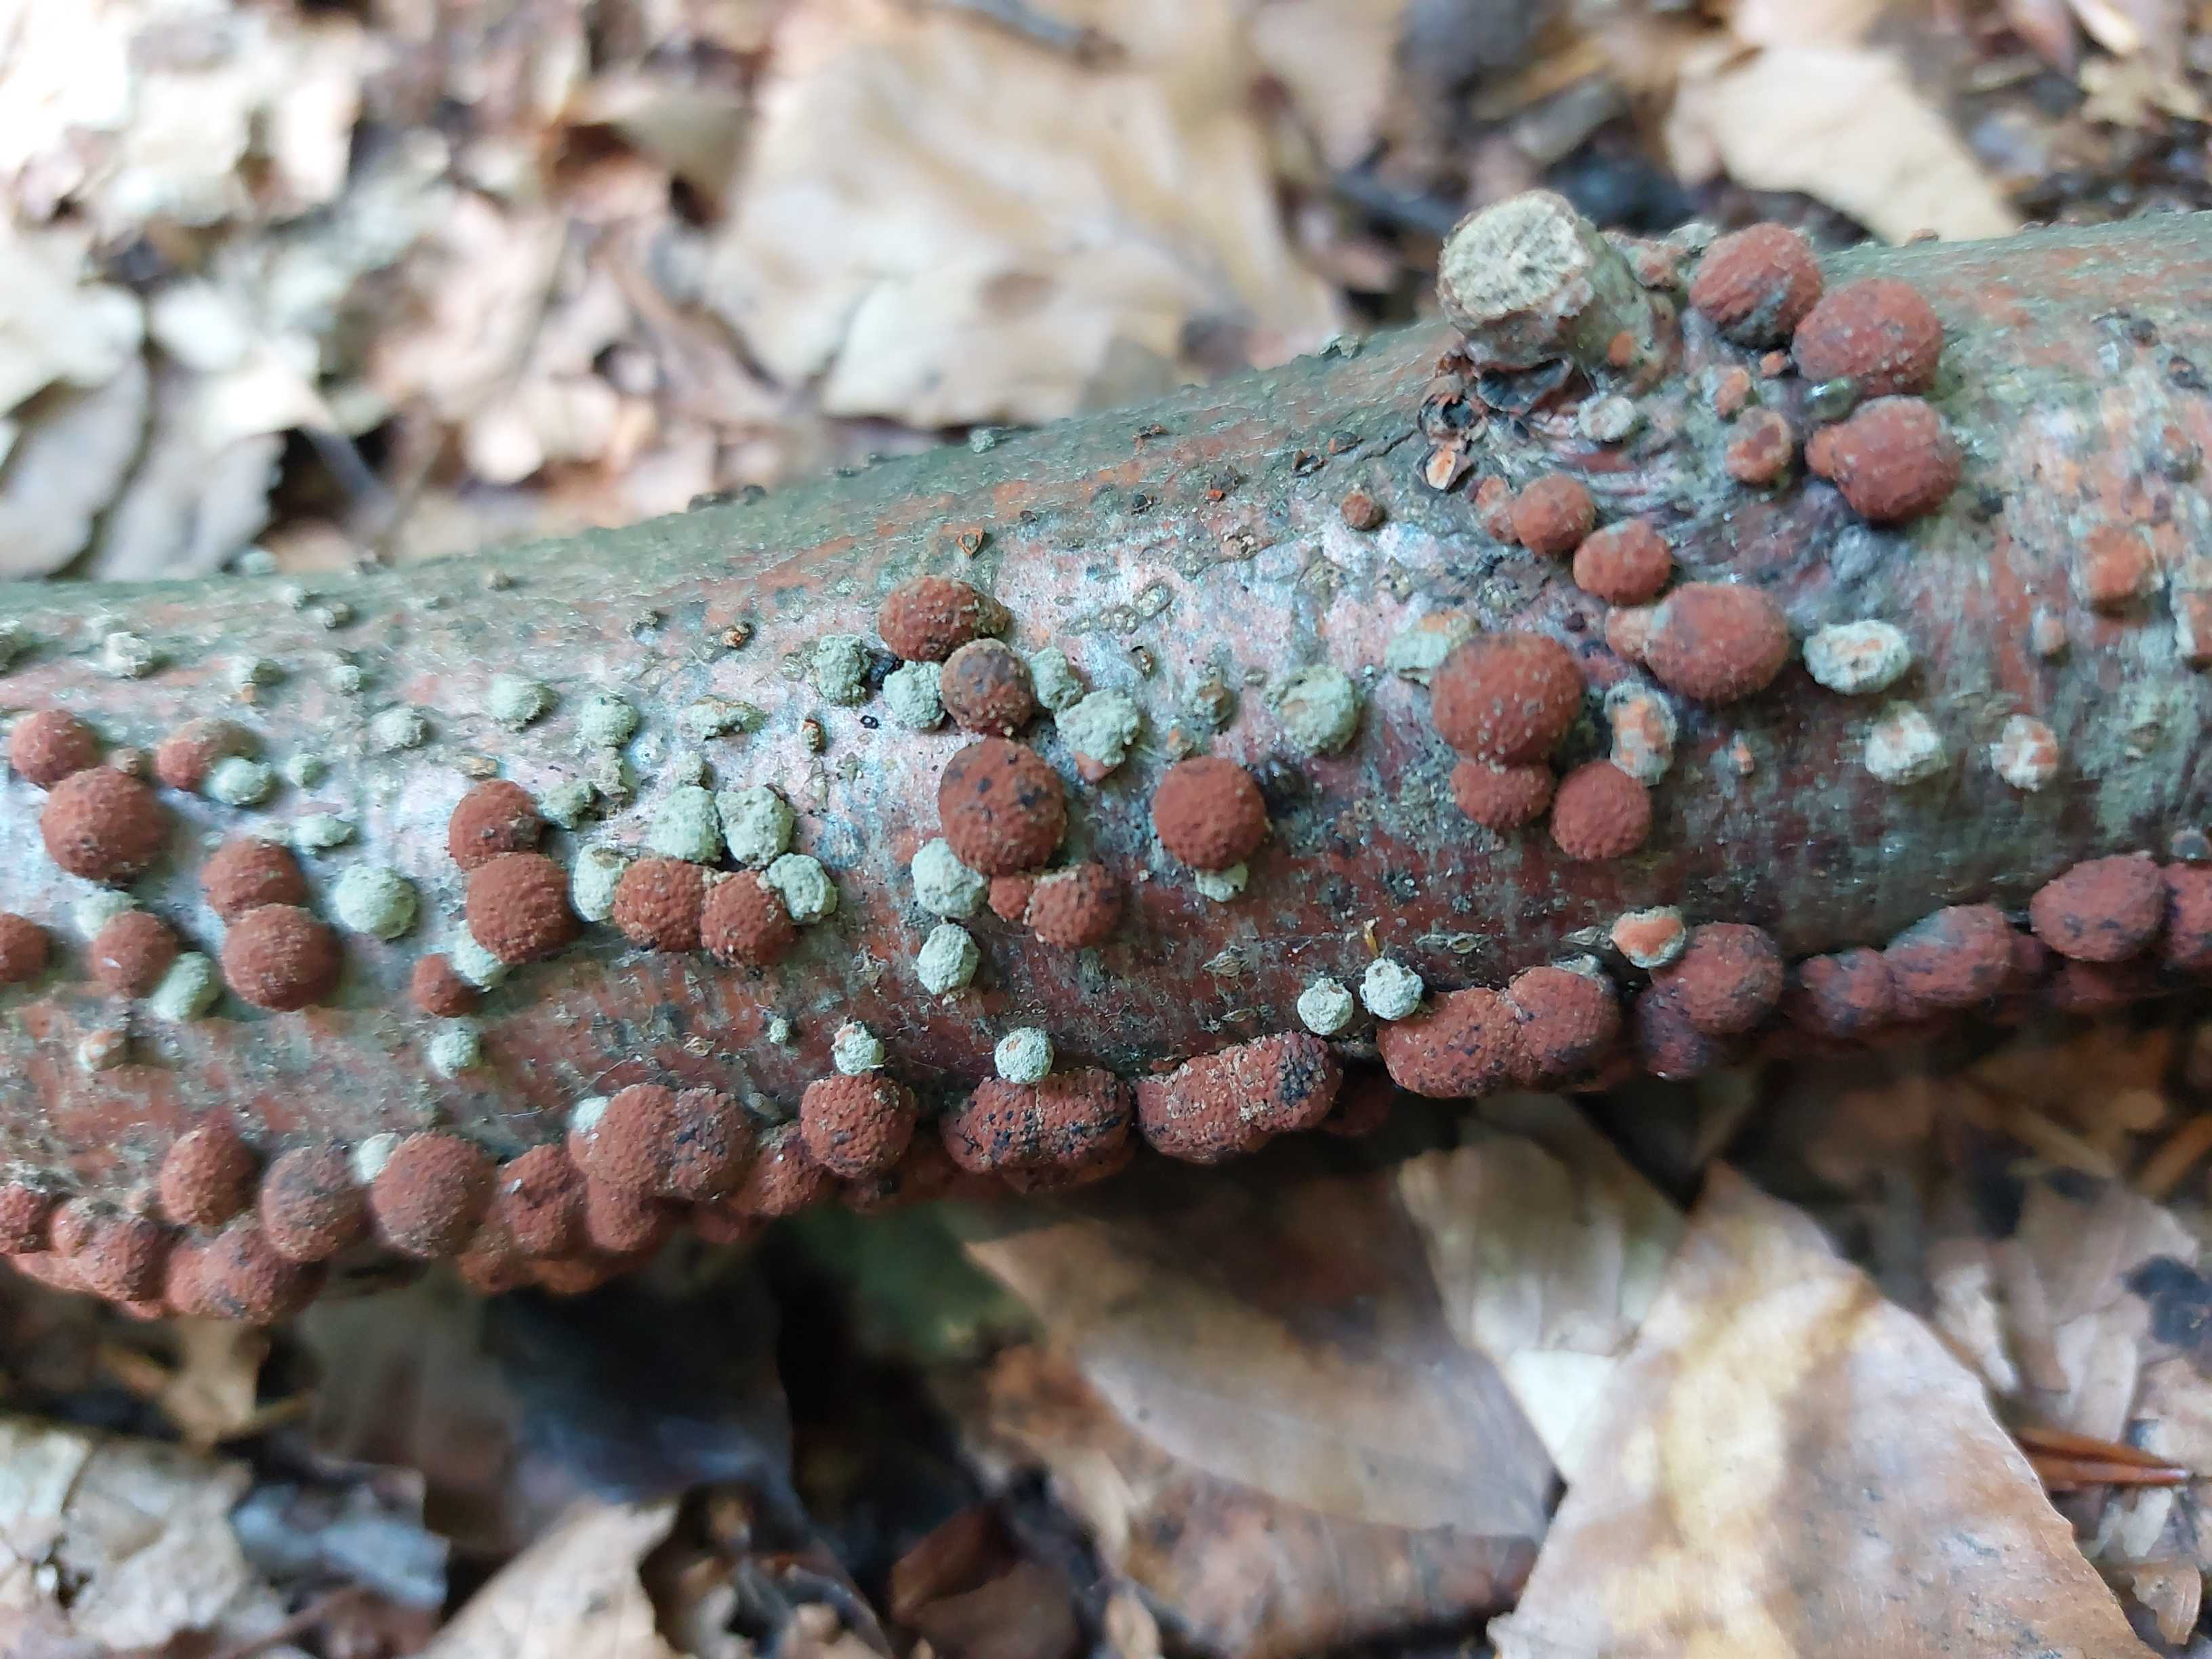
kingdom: Fungi
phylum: Ascomycota
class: Sordariomycetes
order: Xylariales
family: Hypoxylaceae
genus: Hypoxylon
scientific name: Hypoxylon fragiforme
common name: kuljordbær
